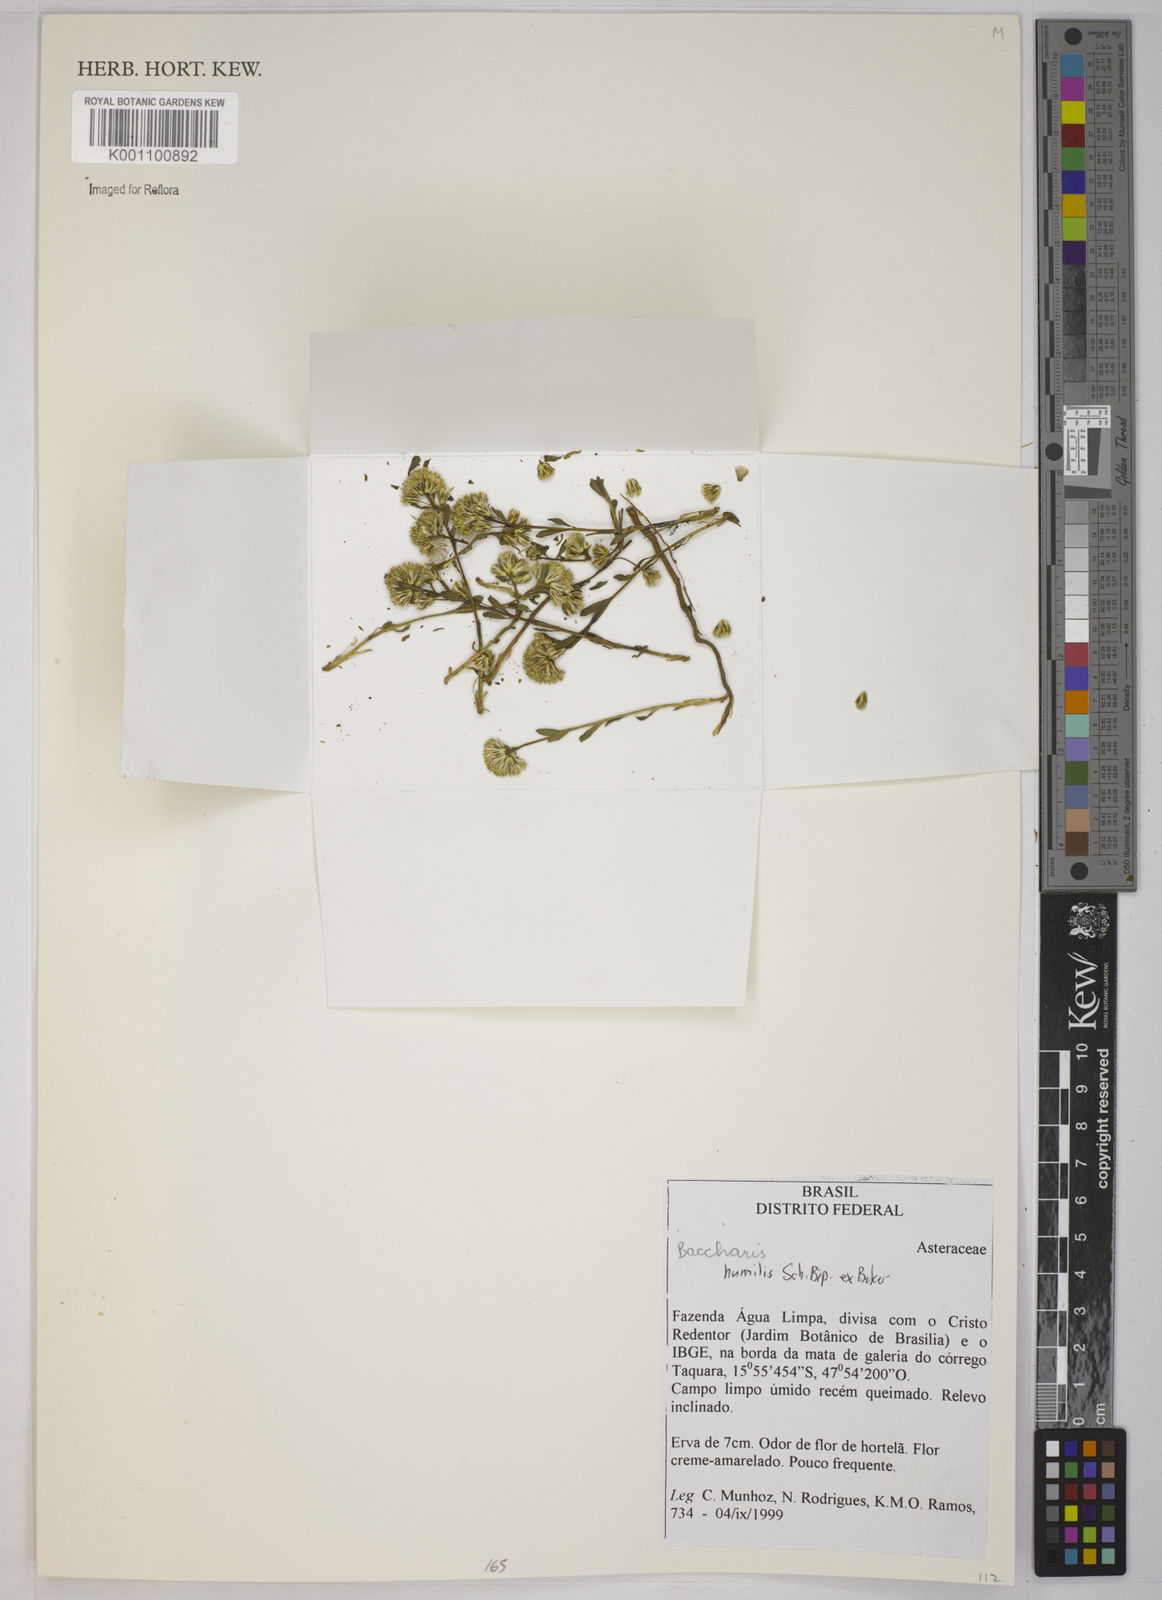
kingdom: Plantae
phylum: Tracheophyta
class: Magnoliopsida
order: Asterales
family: Asteraceae
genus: Baccharis
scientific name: Baccharis humilis
